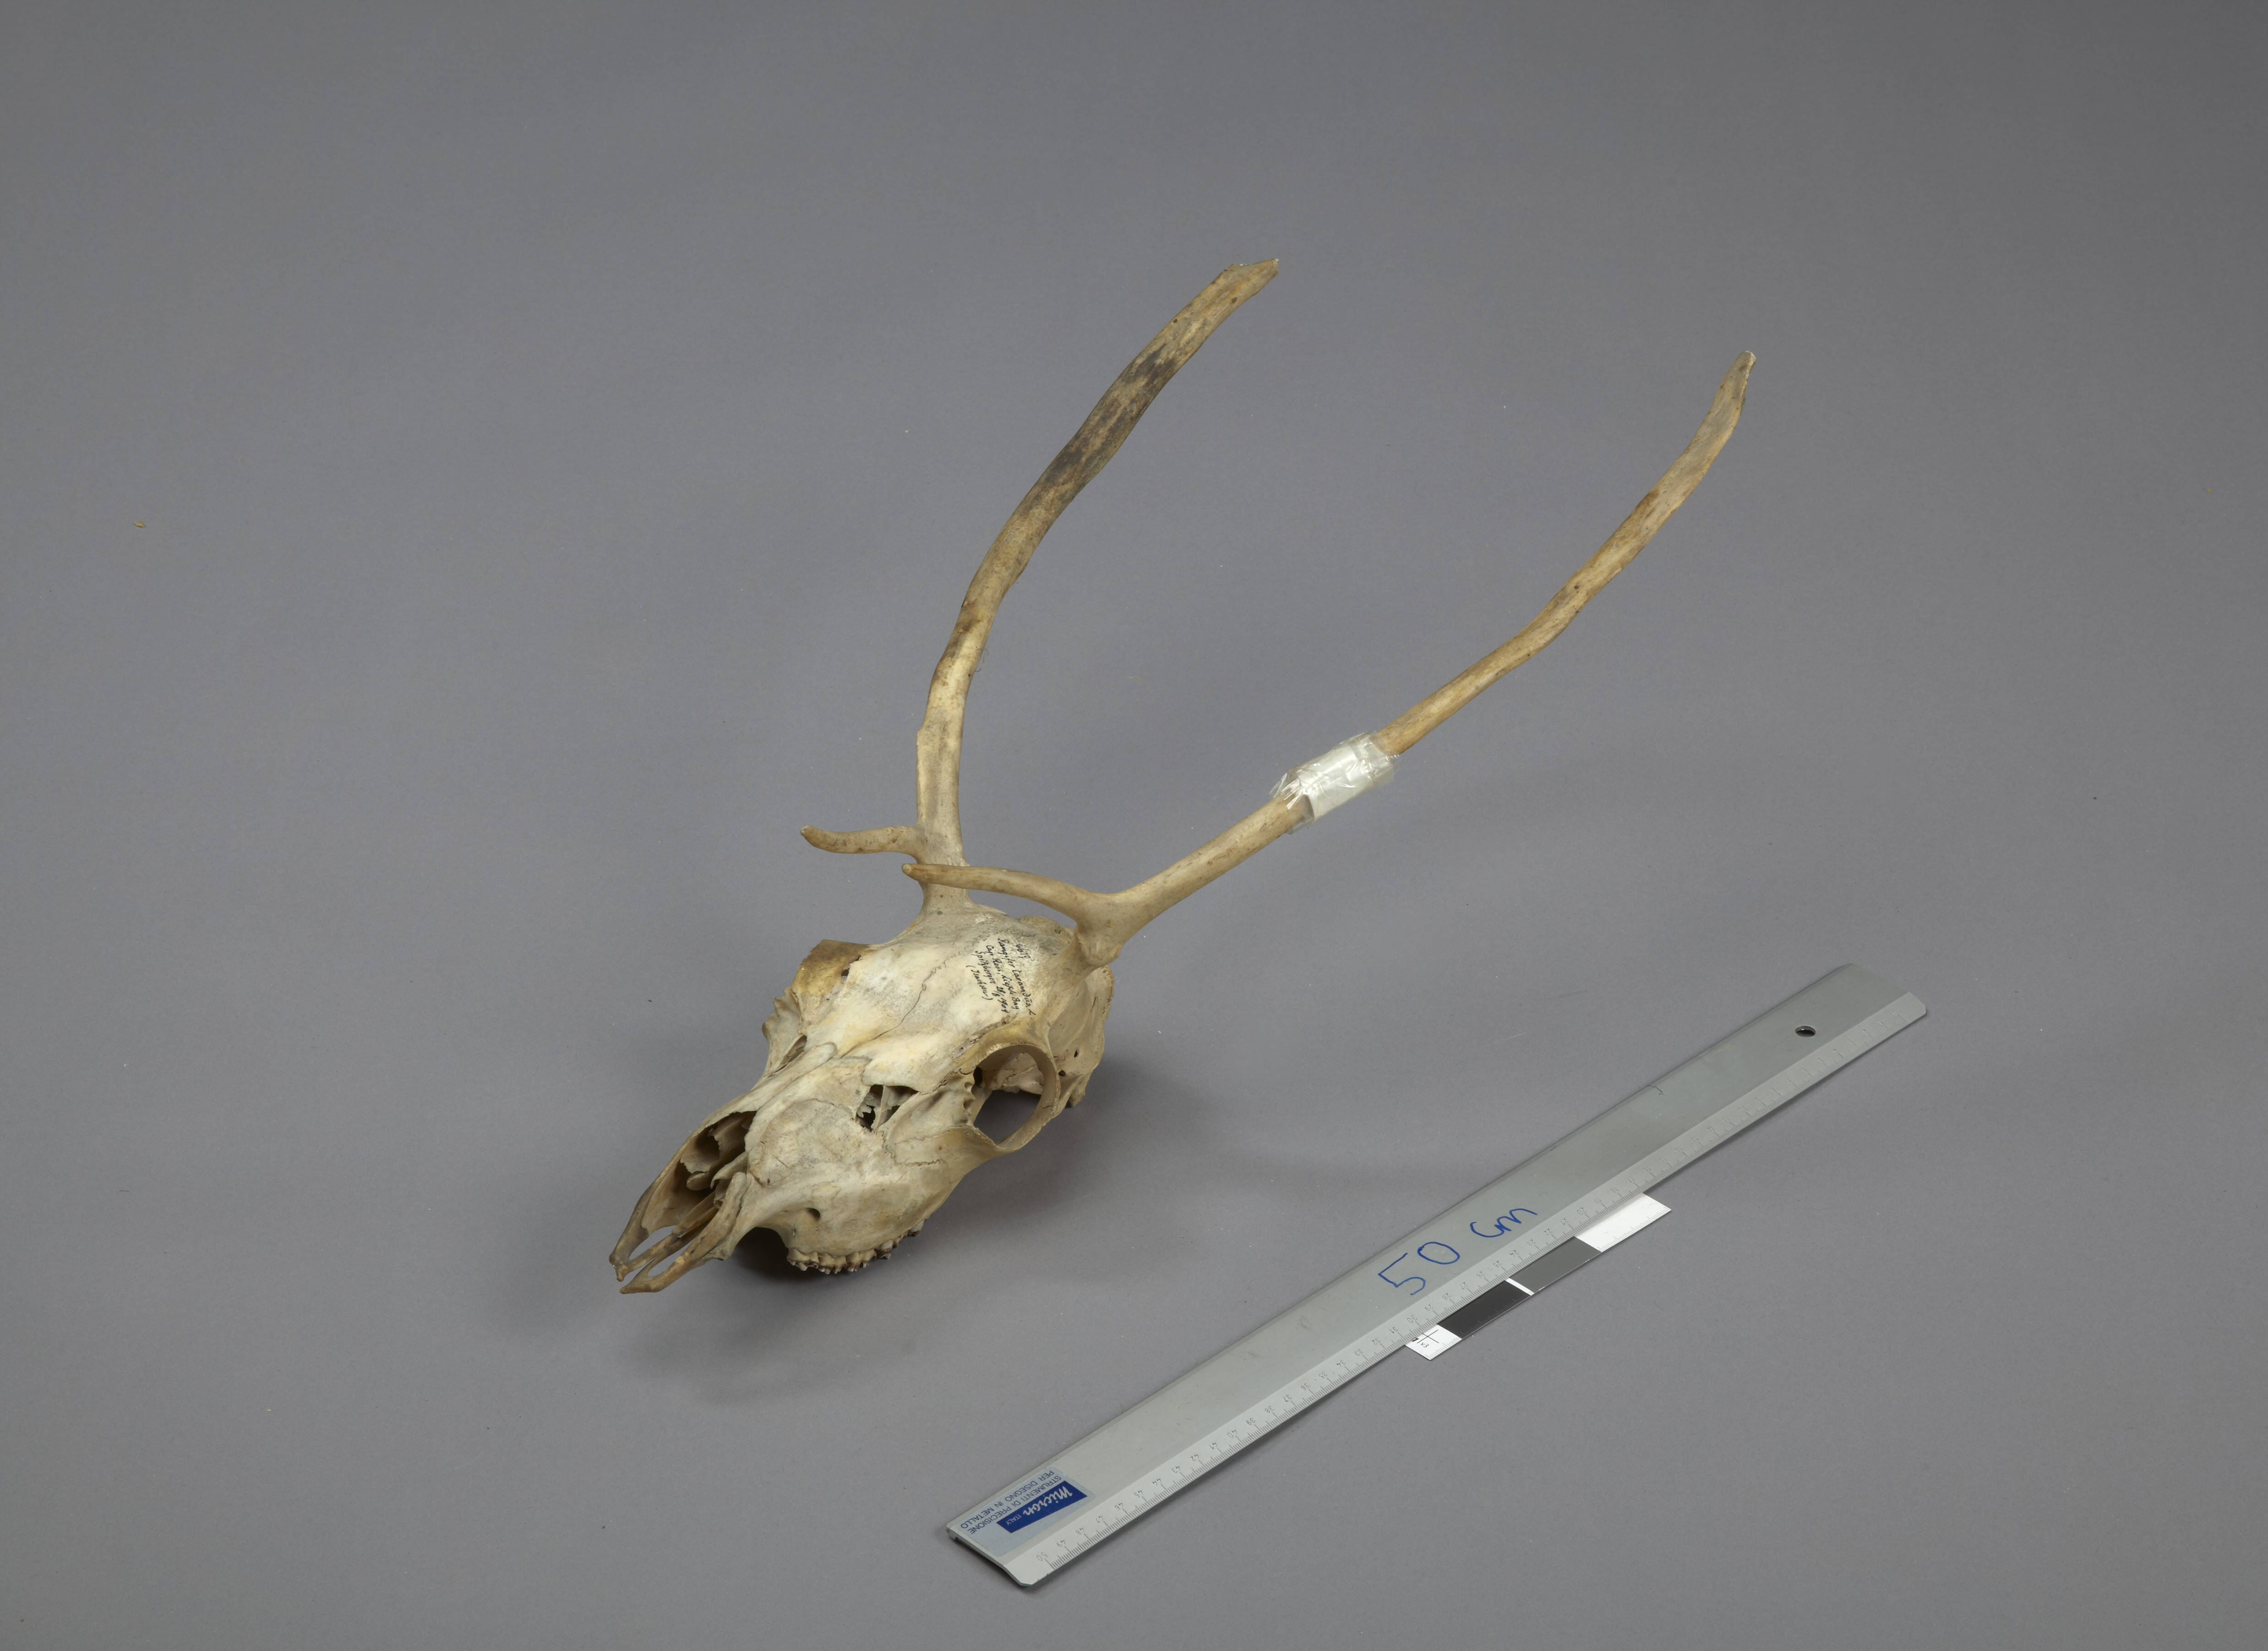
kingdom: Animalia
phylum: Chordata
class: Mammalia
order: Artiodactyla
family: Cervidae
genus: Rangifer
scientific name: Rangifer tarandus
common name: Reindeer
